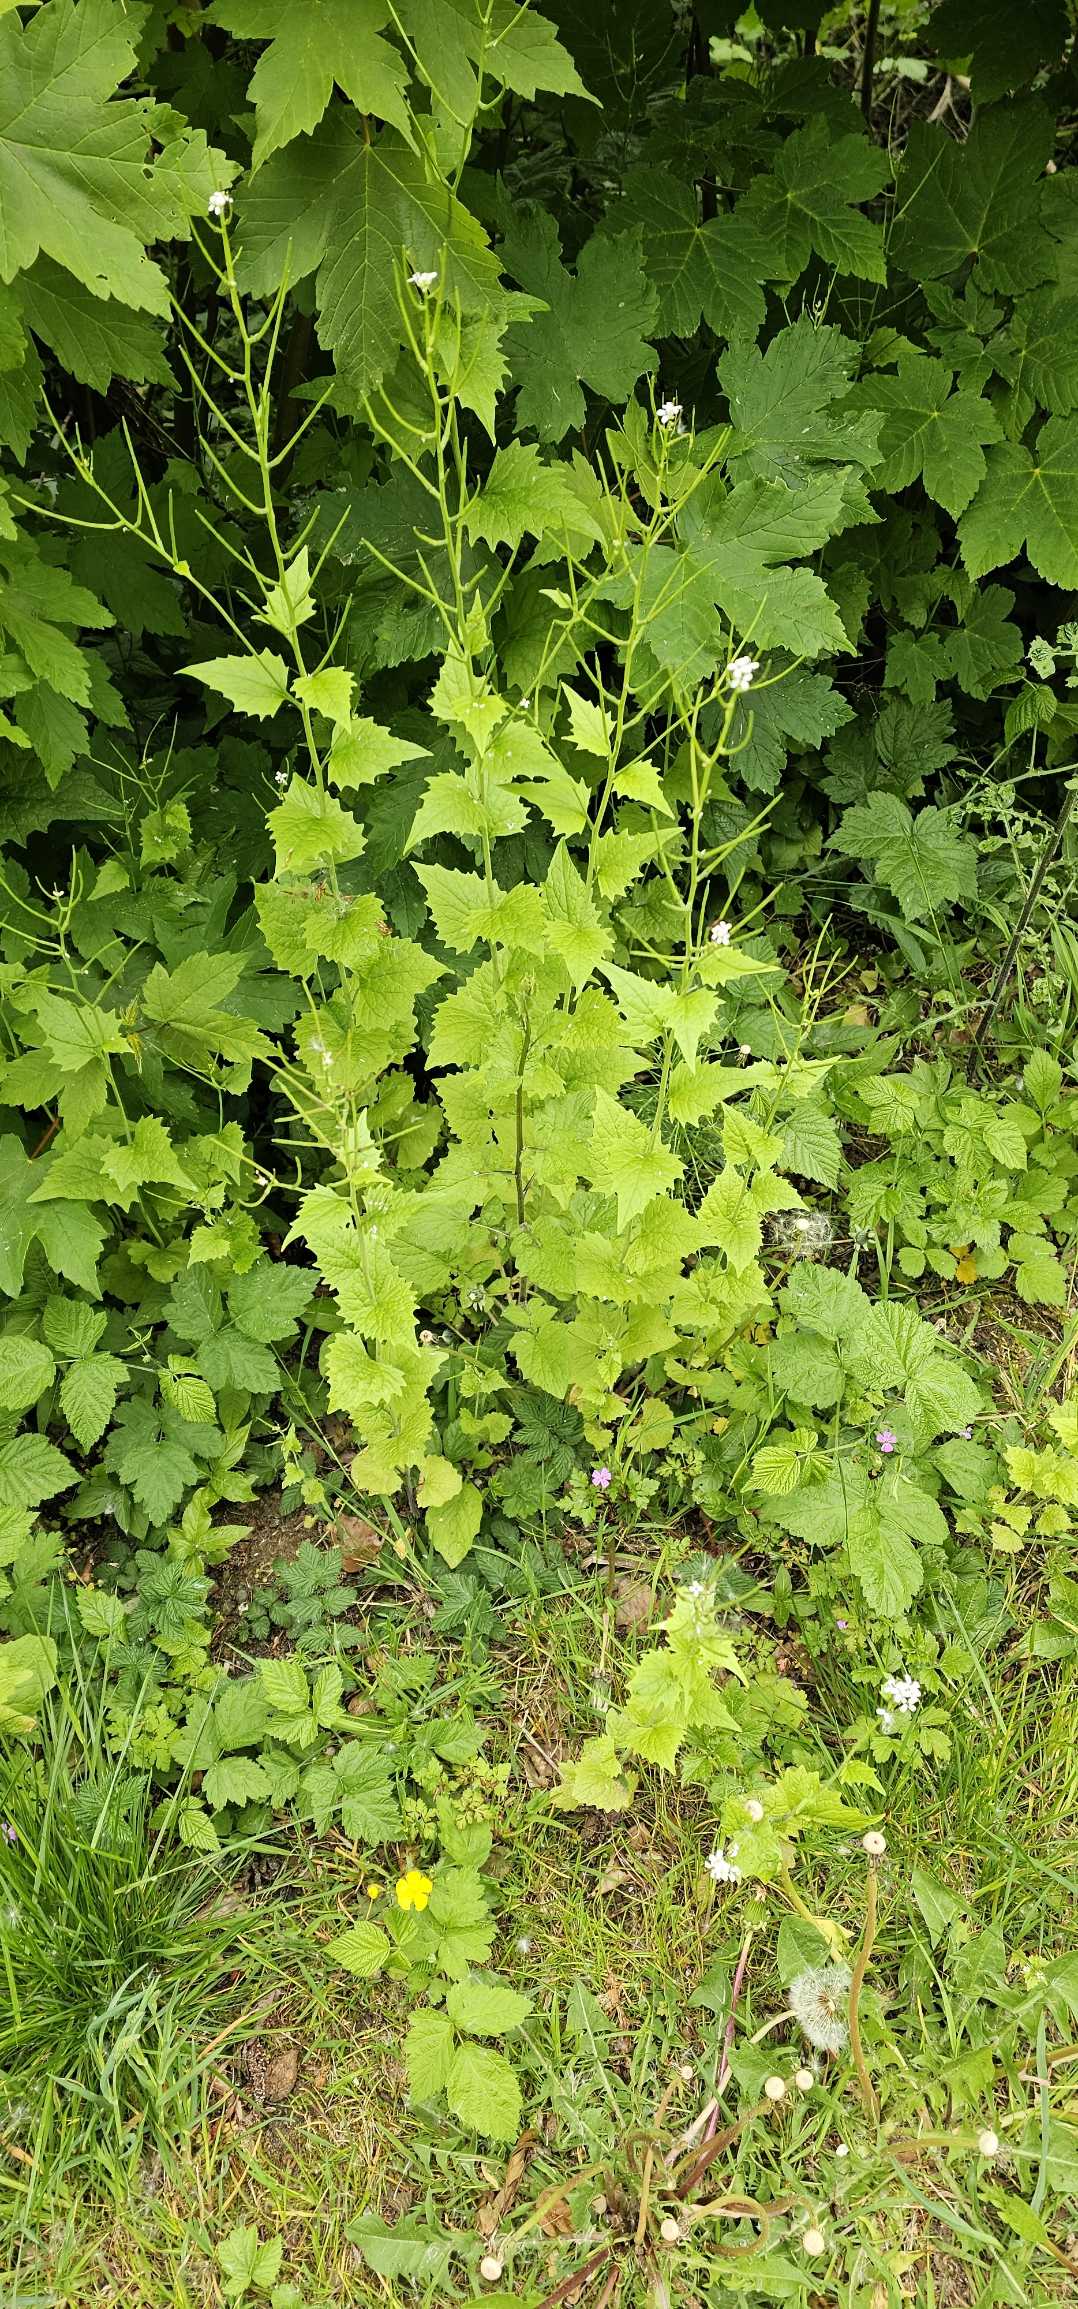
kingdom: Plantae
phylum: Tracheophyta
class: Magnoliopsida
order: Brassicales
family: Brassicaceae
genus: Alliaria
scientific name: Alliaria petiolata
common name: Løgkarse
